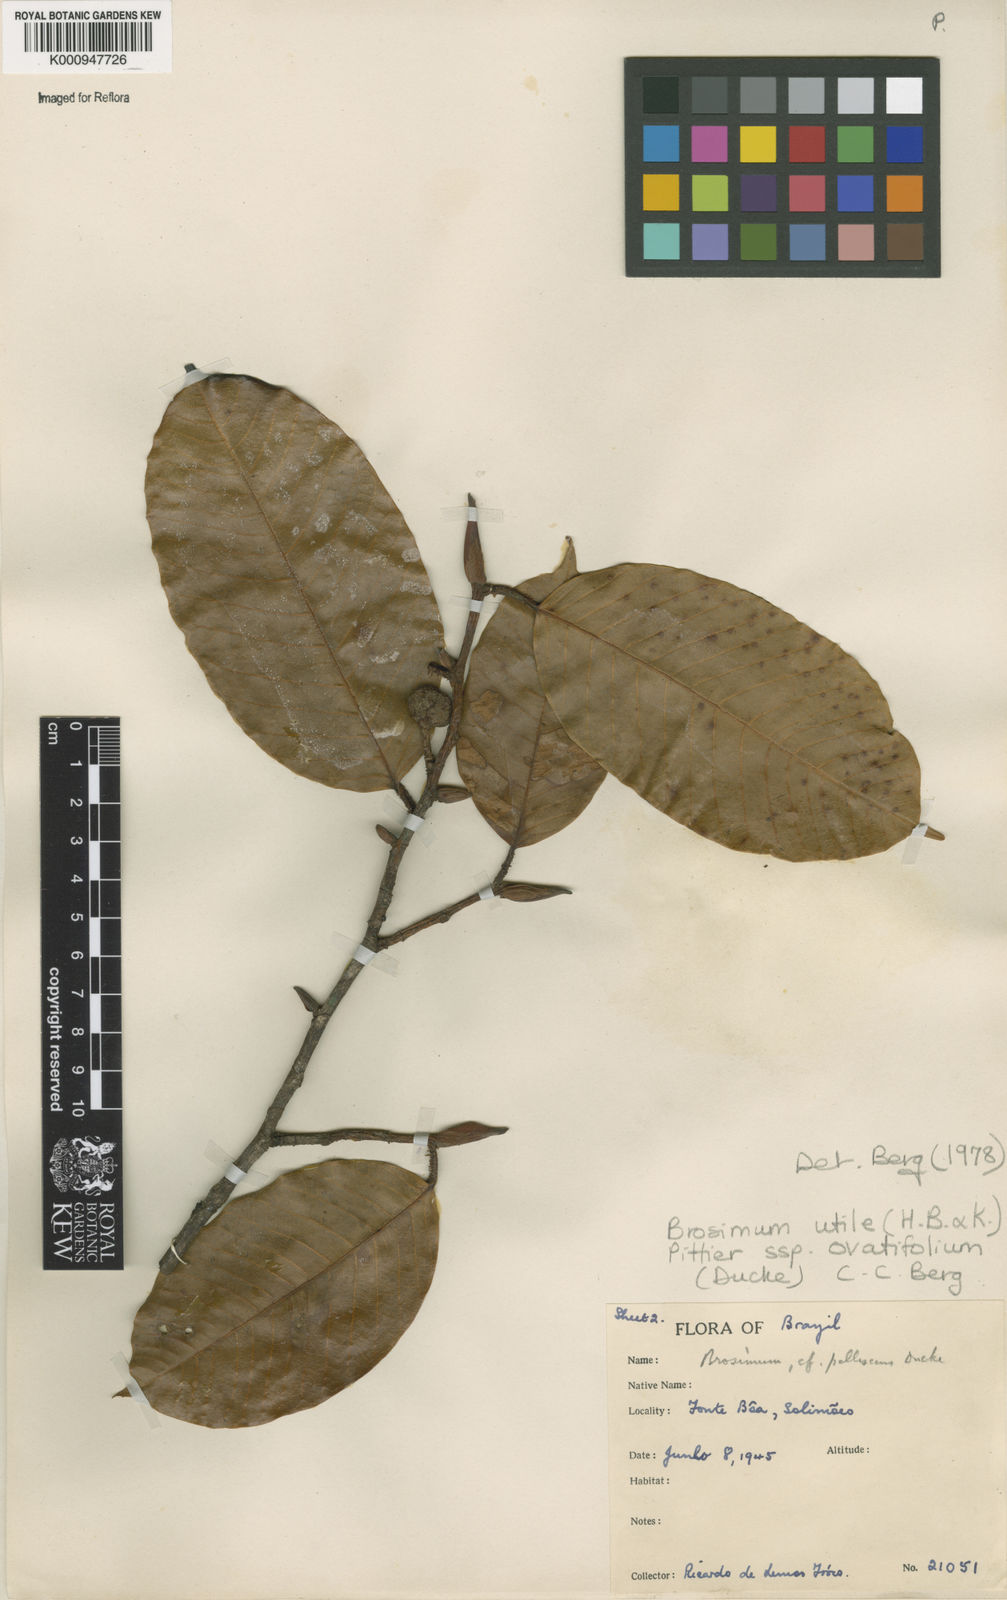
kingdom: Plantae
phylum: Tracheophyta
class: Magnoliopsida
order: Rosales
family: Moraceae
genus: Brosimum
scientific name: Brosimum utile
